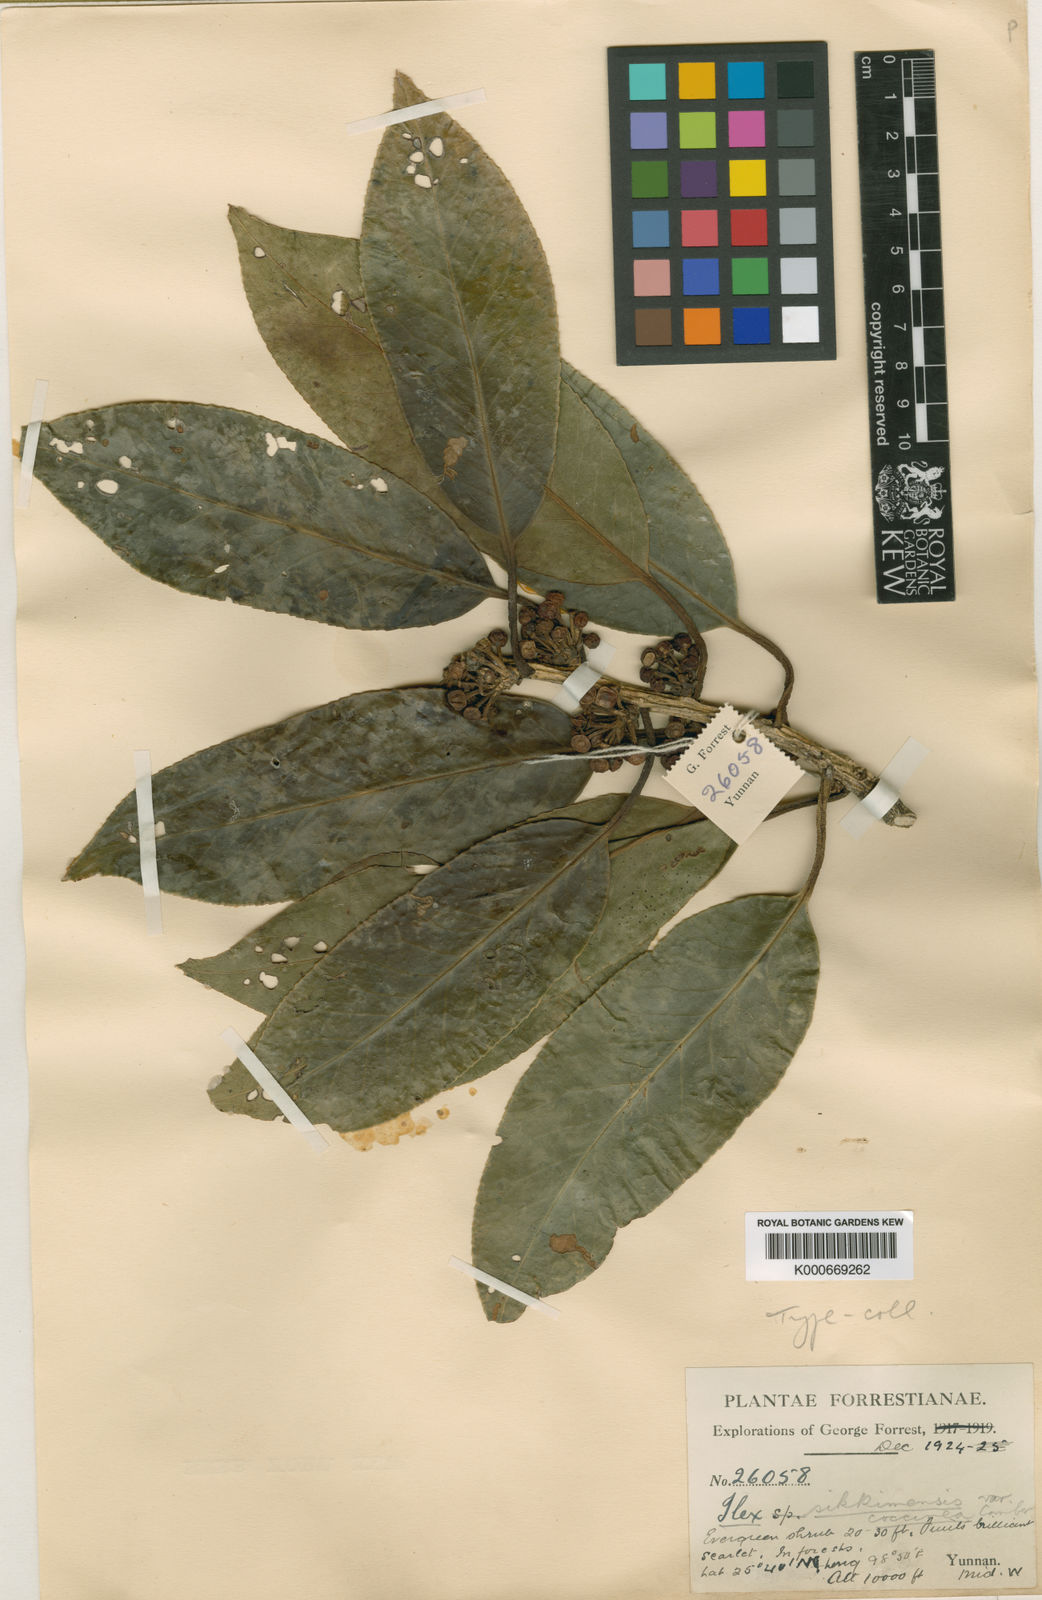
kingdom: Plantae
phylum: Tracheophyta
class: Magnoliopsida
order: Aquifoliales
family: Aquifoliaceae
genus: Ilex
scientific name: Ilex sikkimensis
